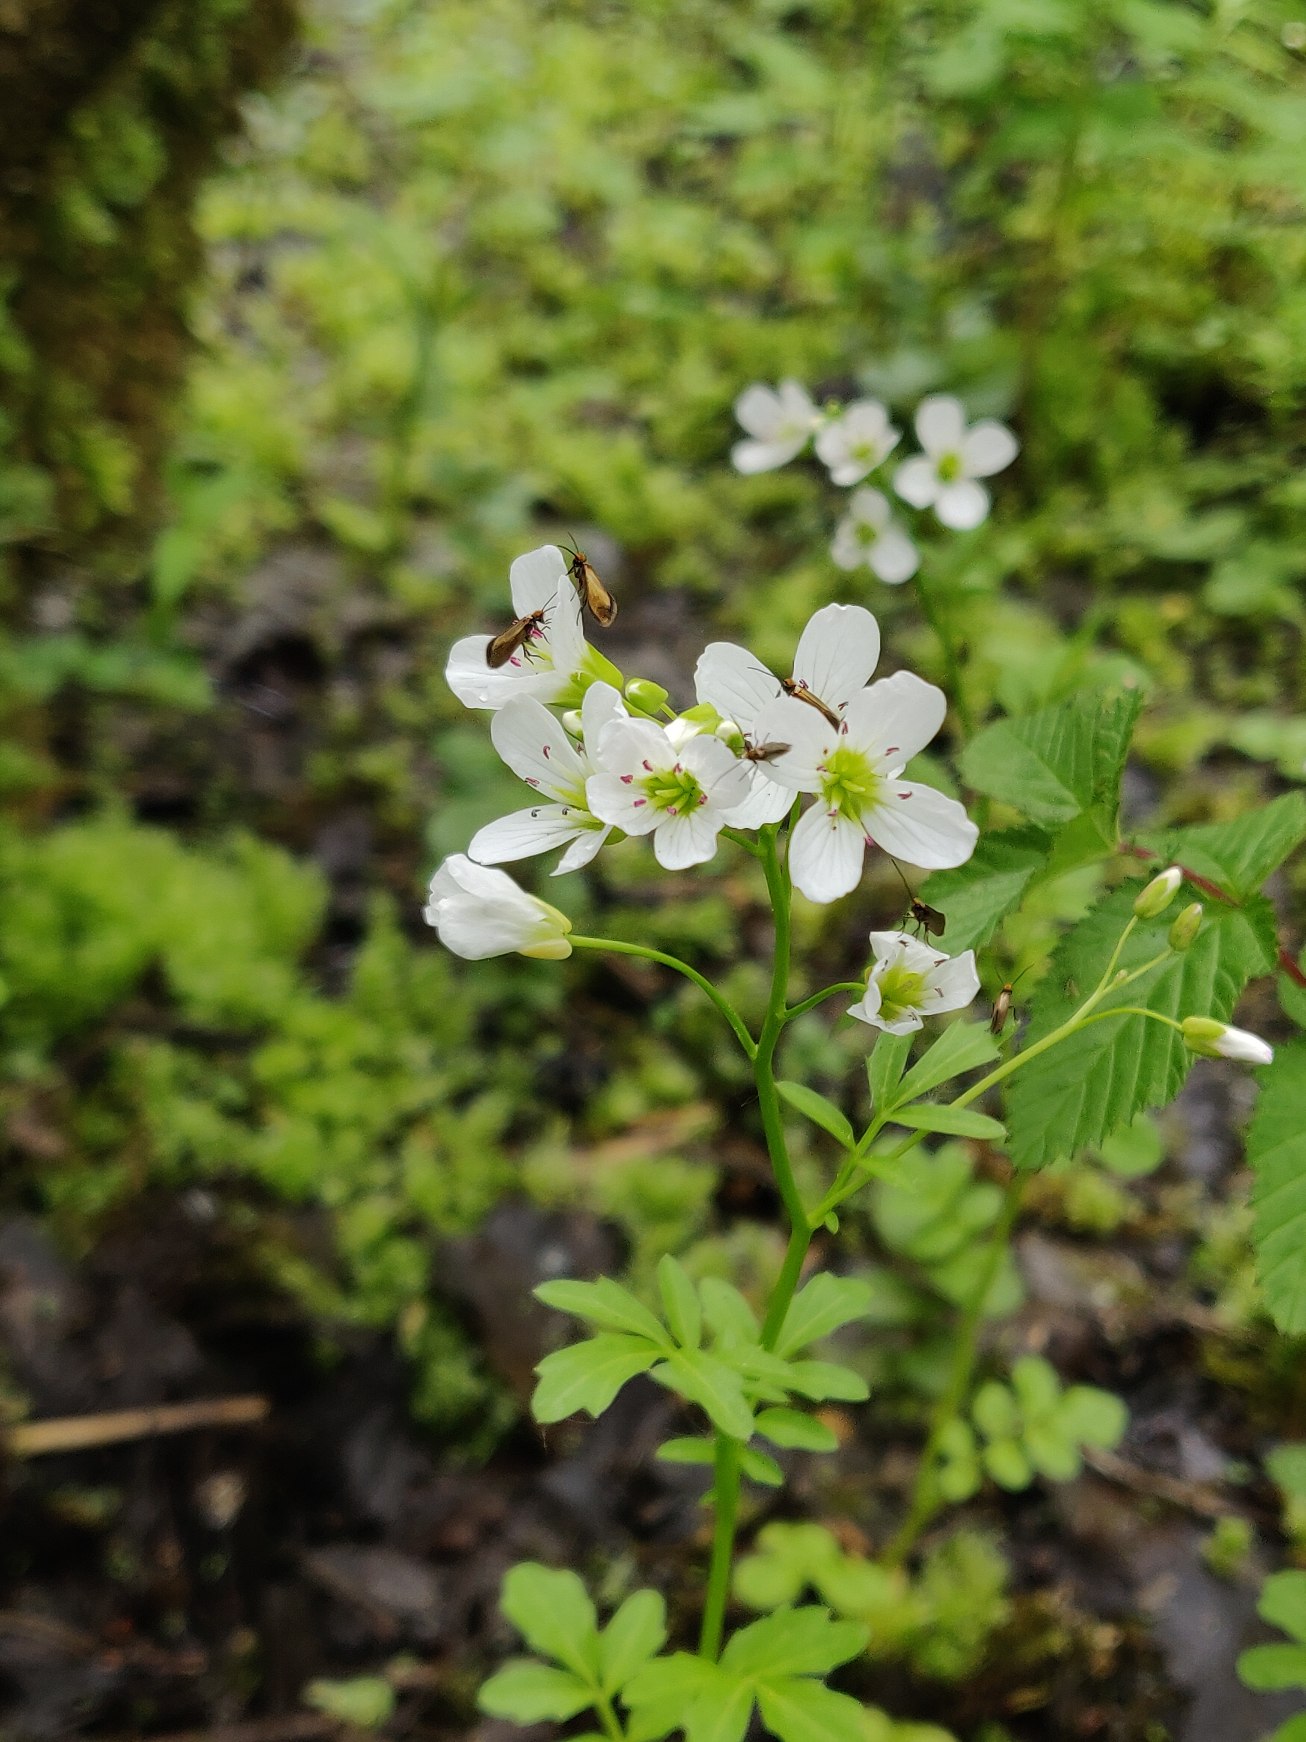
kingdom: Plantae
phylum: Tracheophyta
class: Magnoliopsida
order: Brassicales
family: Brassicaceae
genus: Cardamine
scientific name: Cardamine amara
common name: Vandkarse
